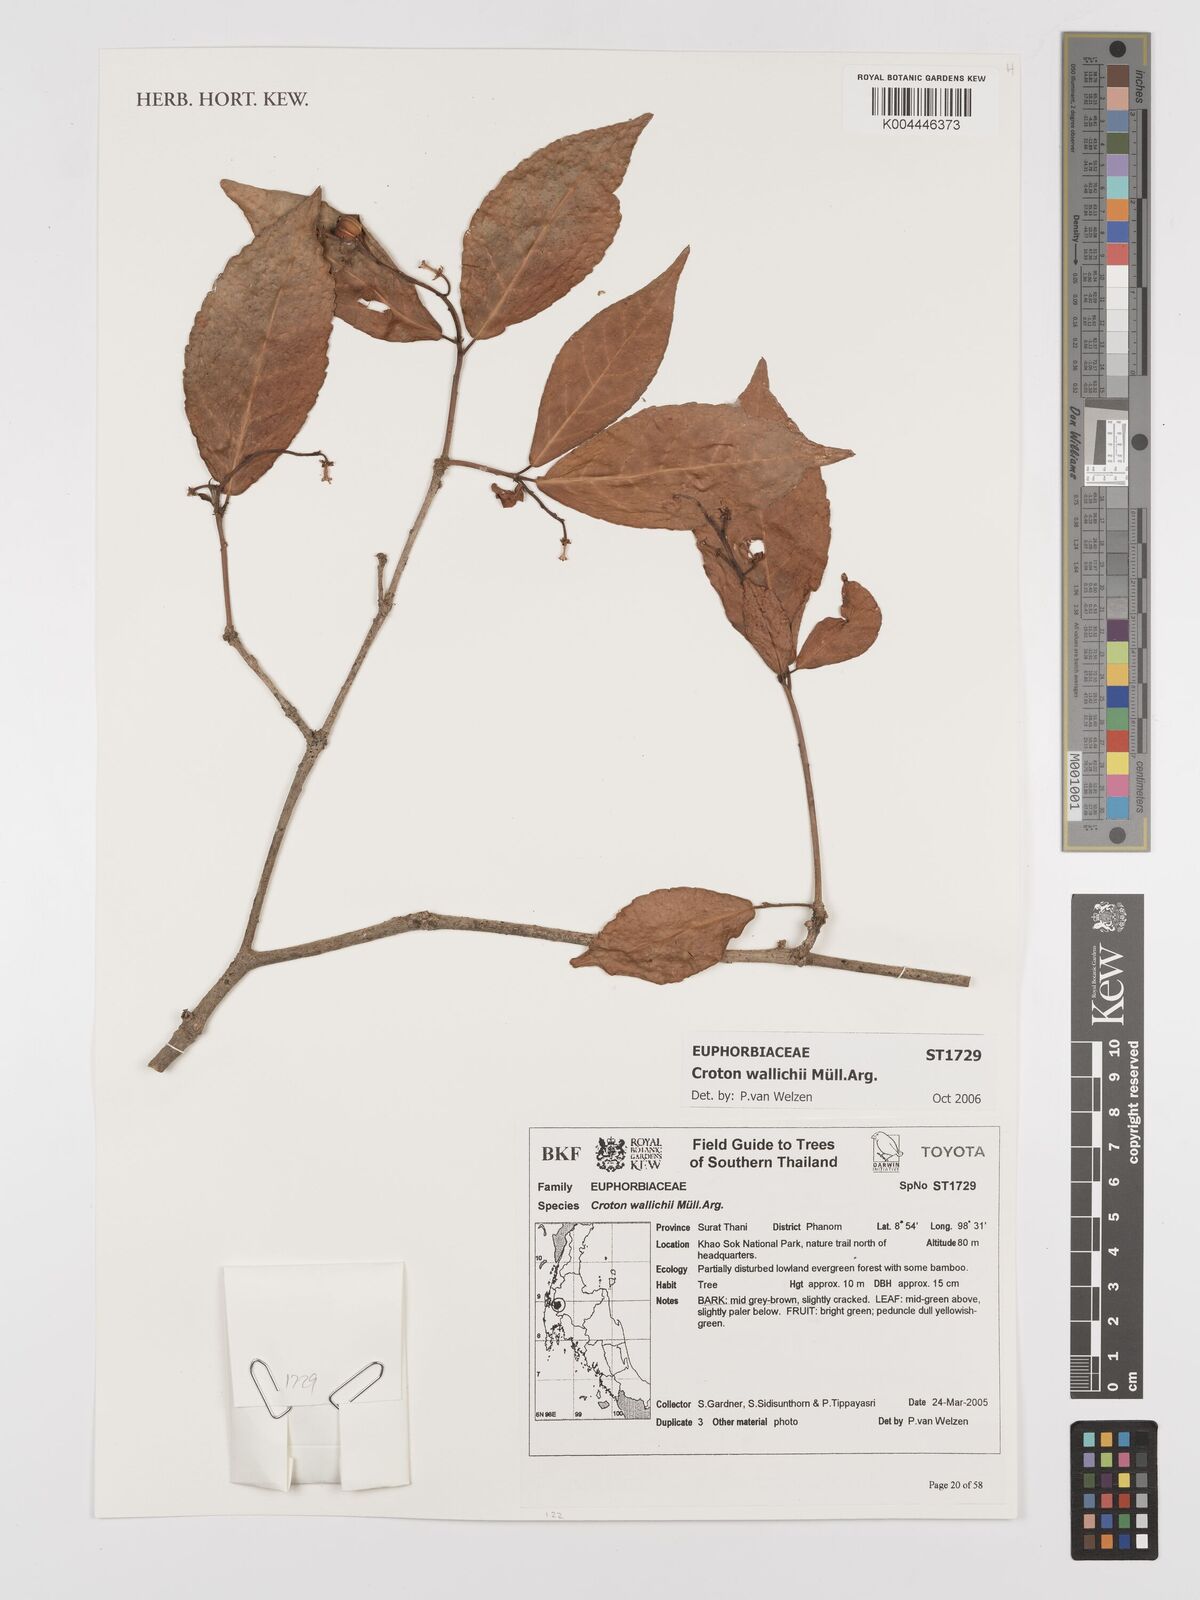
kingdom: Plantae
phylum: Tracheophyta
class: Magnoliopsida
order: Malpighiales
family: Euphorbiaceae
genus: Croton
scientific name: Croton wallichii
